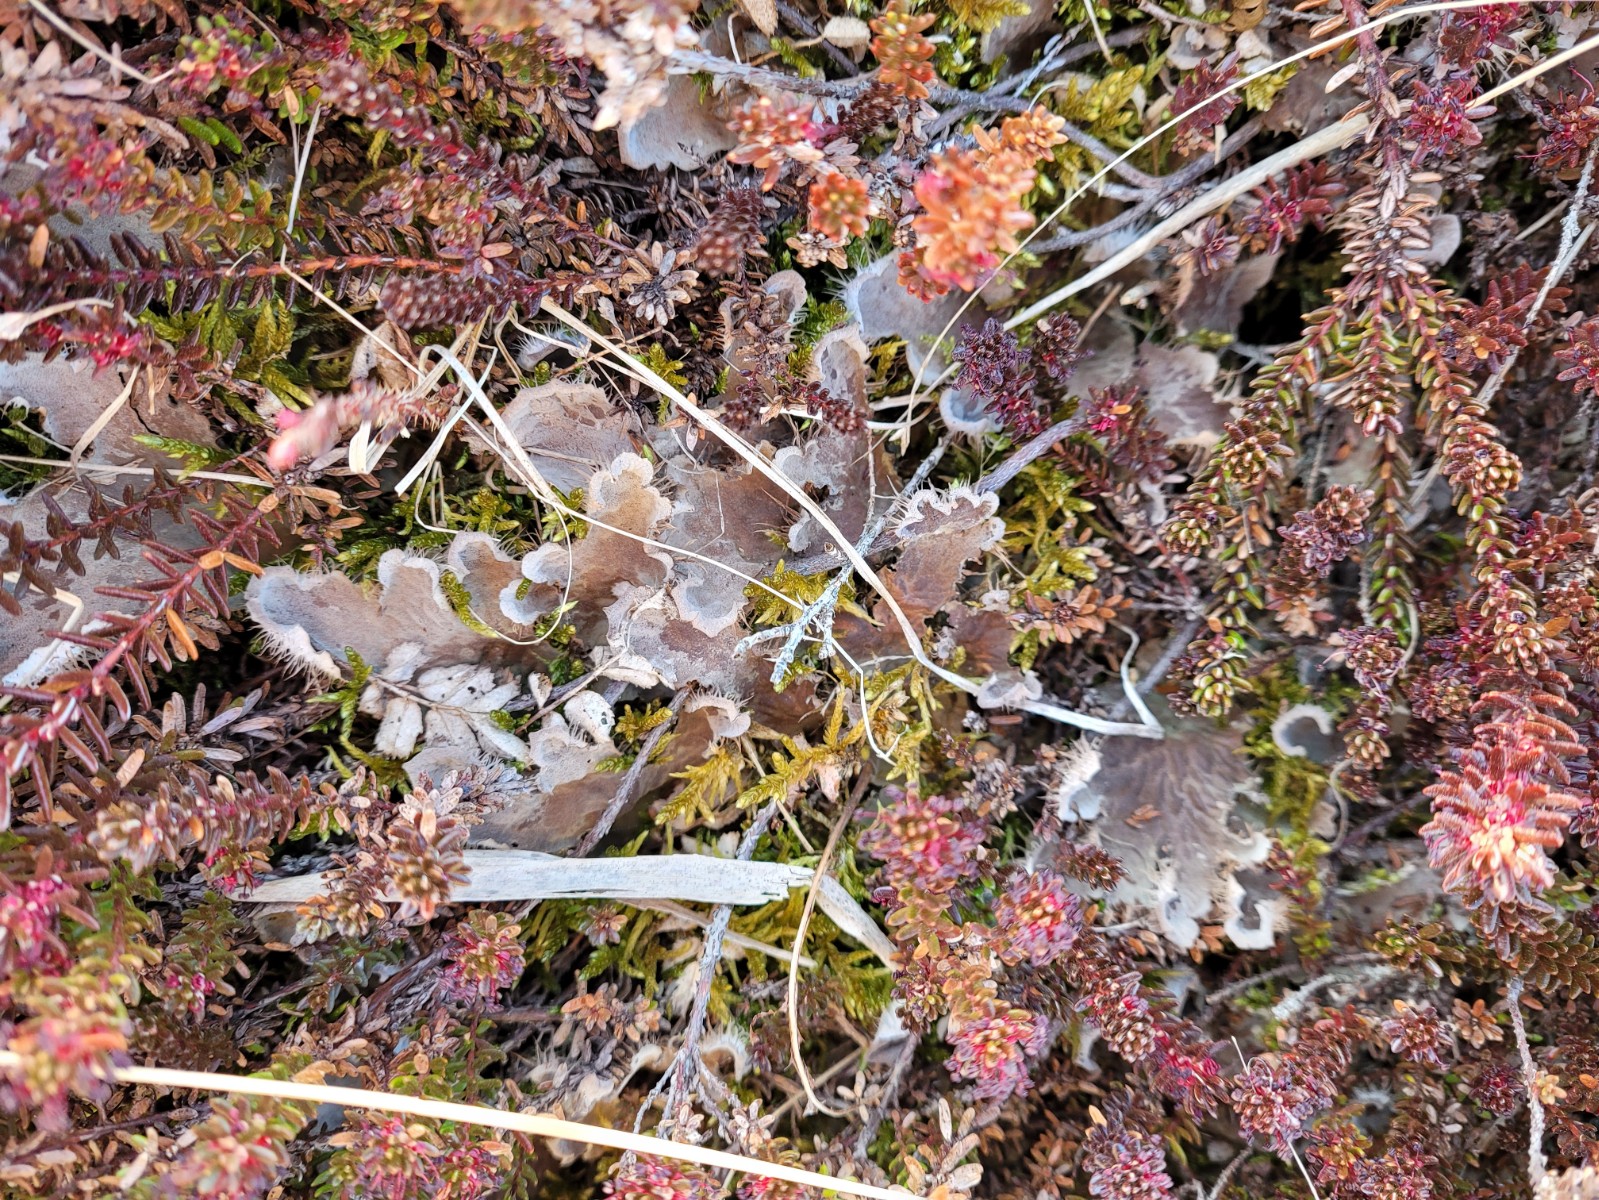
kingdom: Fungi
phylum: Ascomycota
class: Lecanoromycetes
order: Peltigerales
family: Peltigeraceae
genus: Peltigera
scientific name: Peltigera membranacea
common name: tynd skjoldlav
